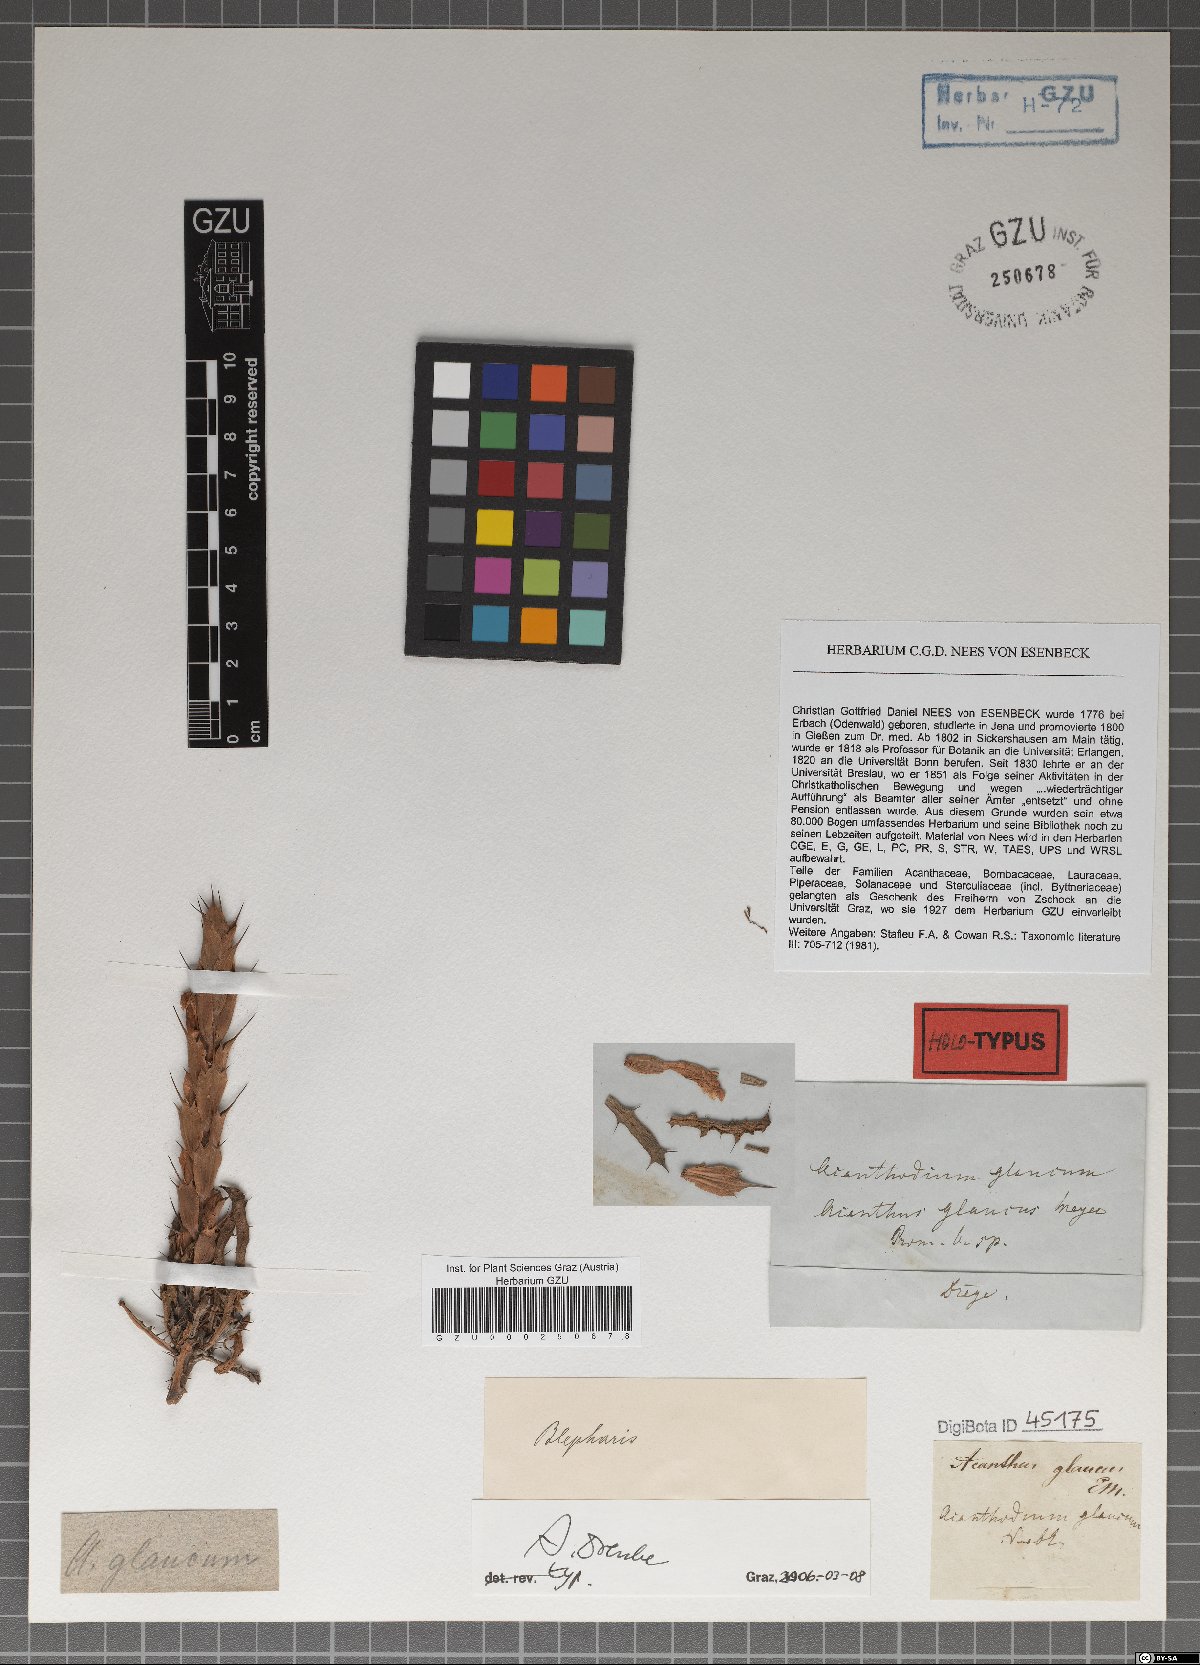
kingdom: Plantae
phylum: Tracheophyta
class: Magnoliopsida
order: Lamiales
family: Acanthaceae
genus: Acanthopsis
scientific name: Acanthopsis glauca
